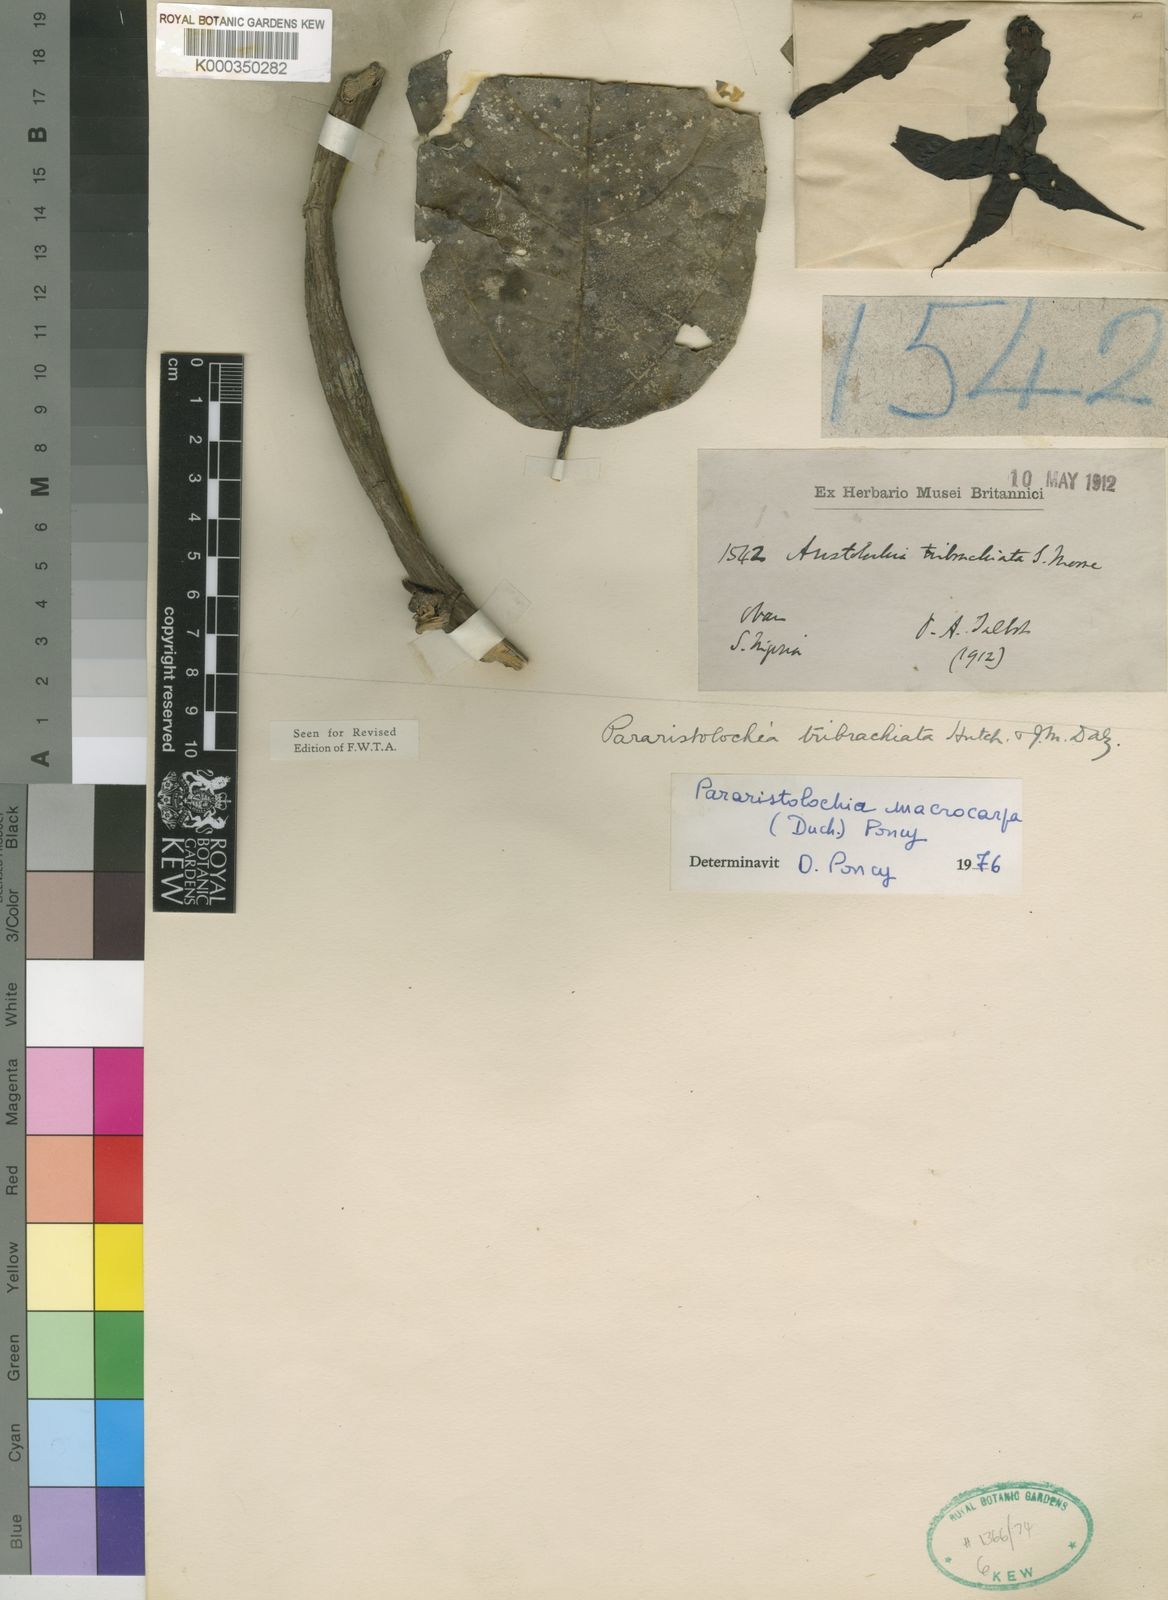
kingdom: Plantae
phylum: Tracheophyta
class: Magnoliopsida
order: Piperales
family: Aristolochiaceae
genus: Aristolochia
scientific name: Aristolochia macrocarpa
